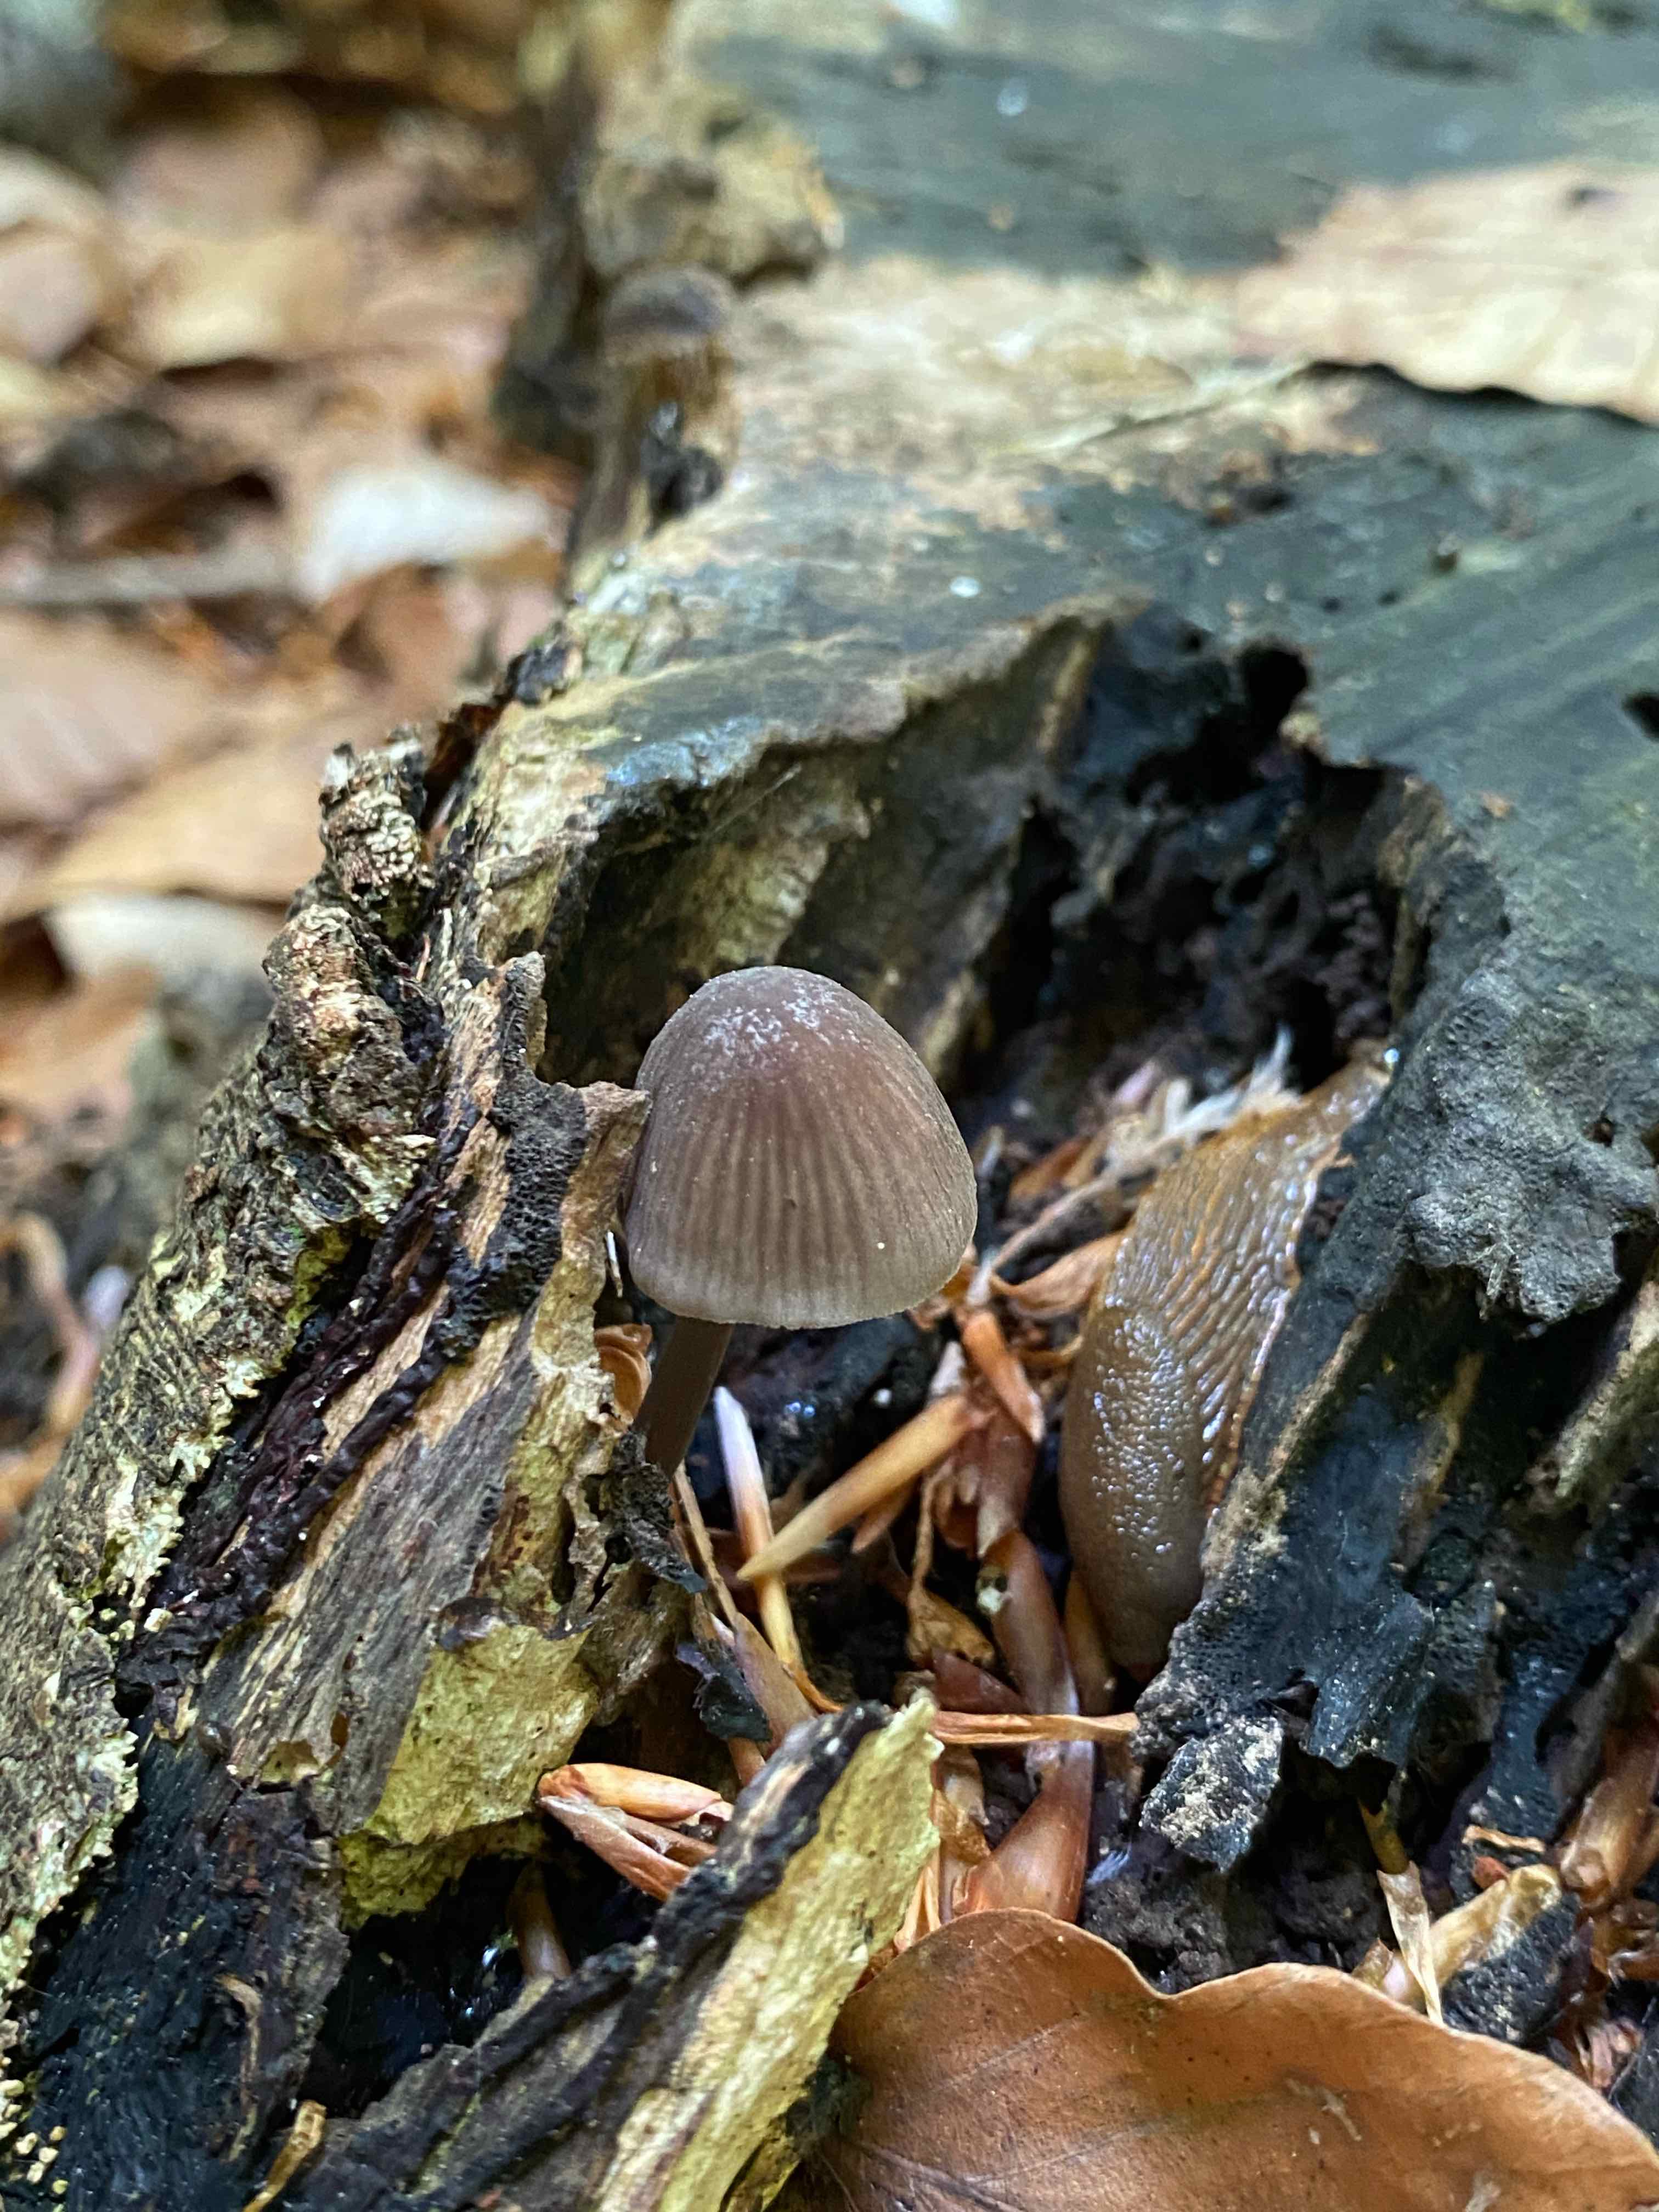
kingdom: Fungi
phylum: Basidiomycota
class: Agaricomycetes
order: Agaricales
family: Mycenaceae
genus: Mycena
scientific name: Mycena
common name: huesvamp
